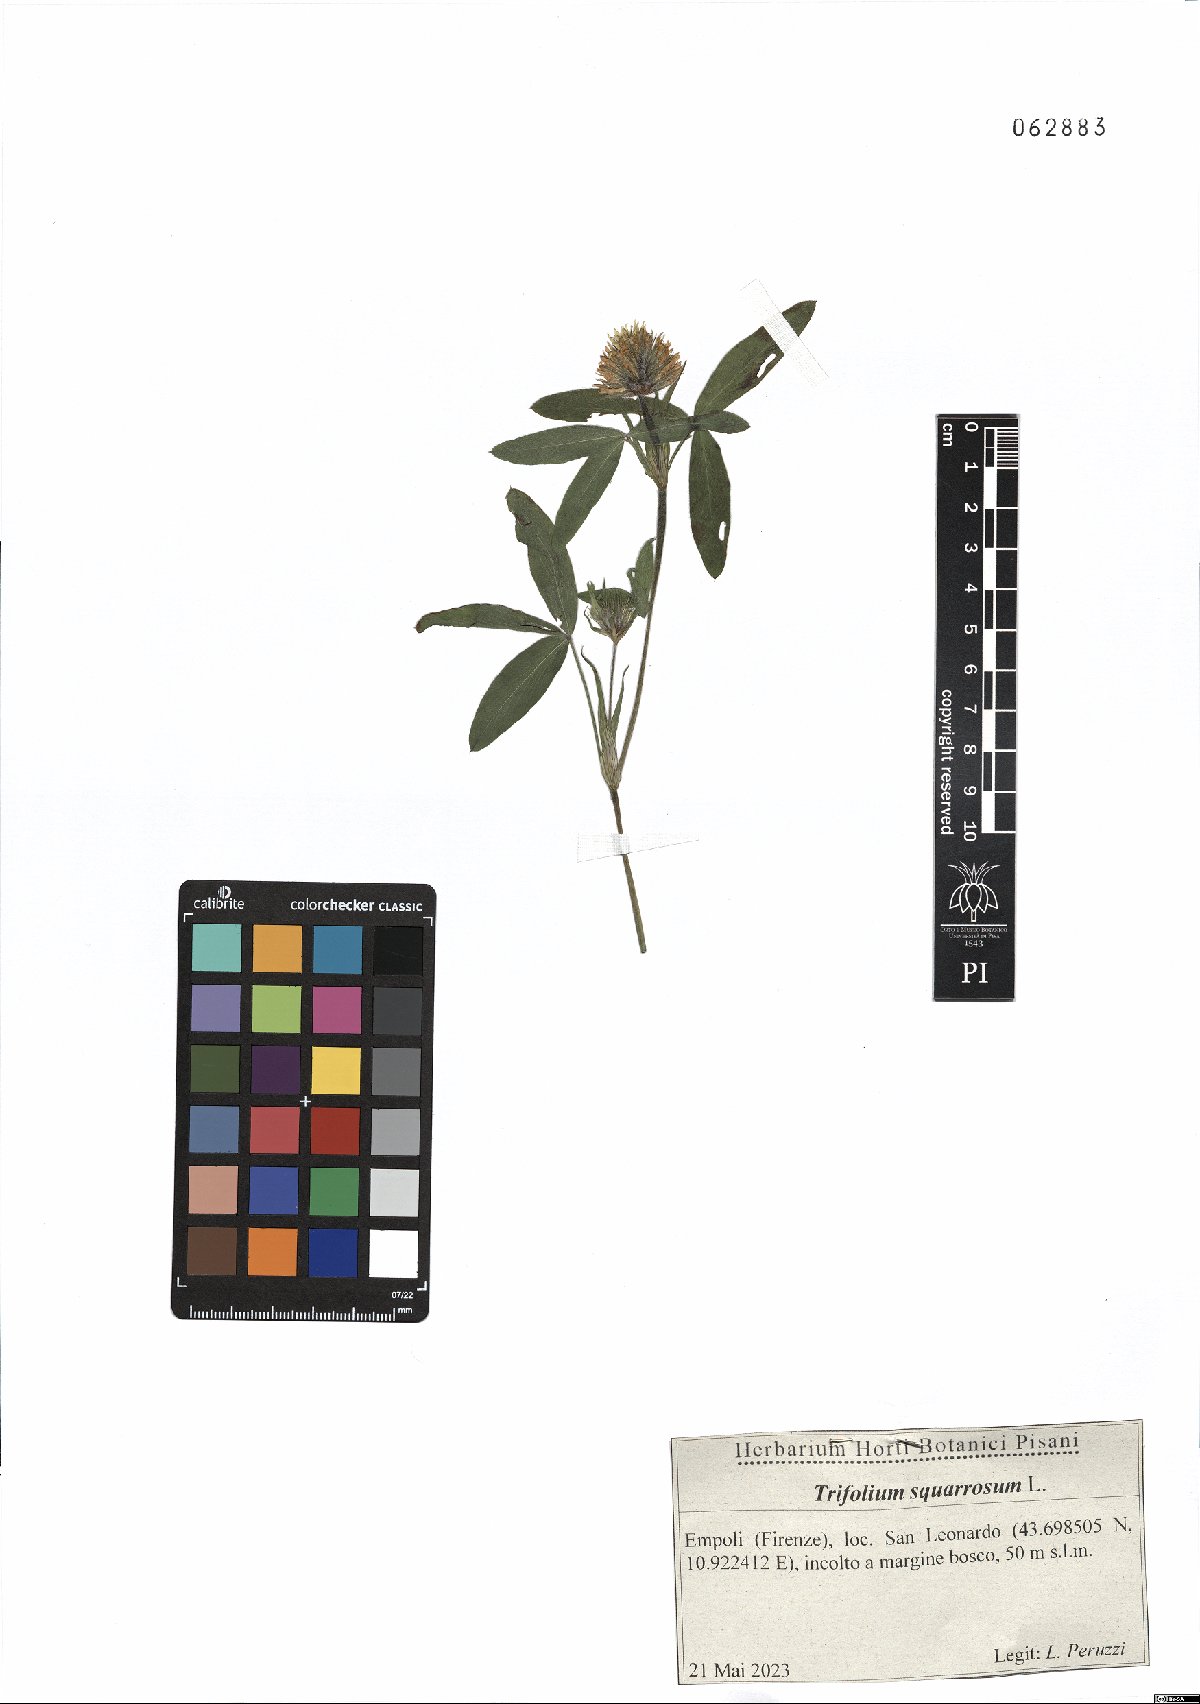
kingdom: Plantae
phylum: Tracheophyta
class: Magnoliopsida
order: Fabales
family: Fabaceae
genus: Trifolium
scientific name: Trifolium squarrosum
